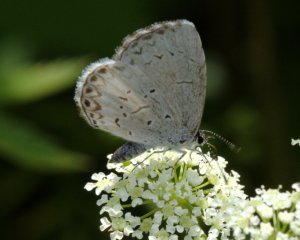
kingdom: Animalia
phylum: Arthropoda
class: Insecta
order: Lepidoptera
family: Lycaenidae
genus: Cyaniris
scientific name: Cyaniris neglecta
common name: Summer Azure
